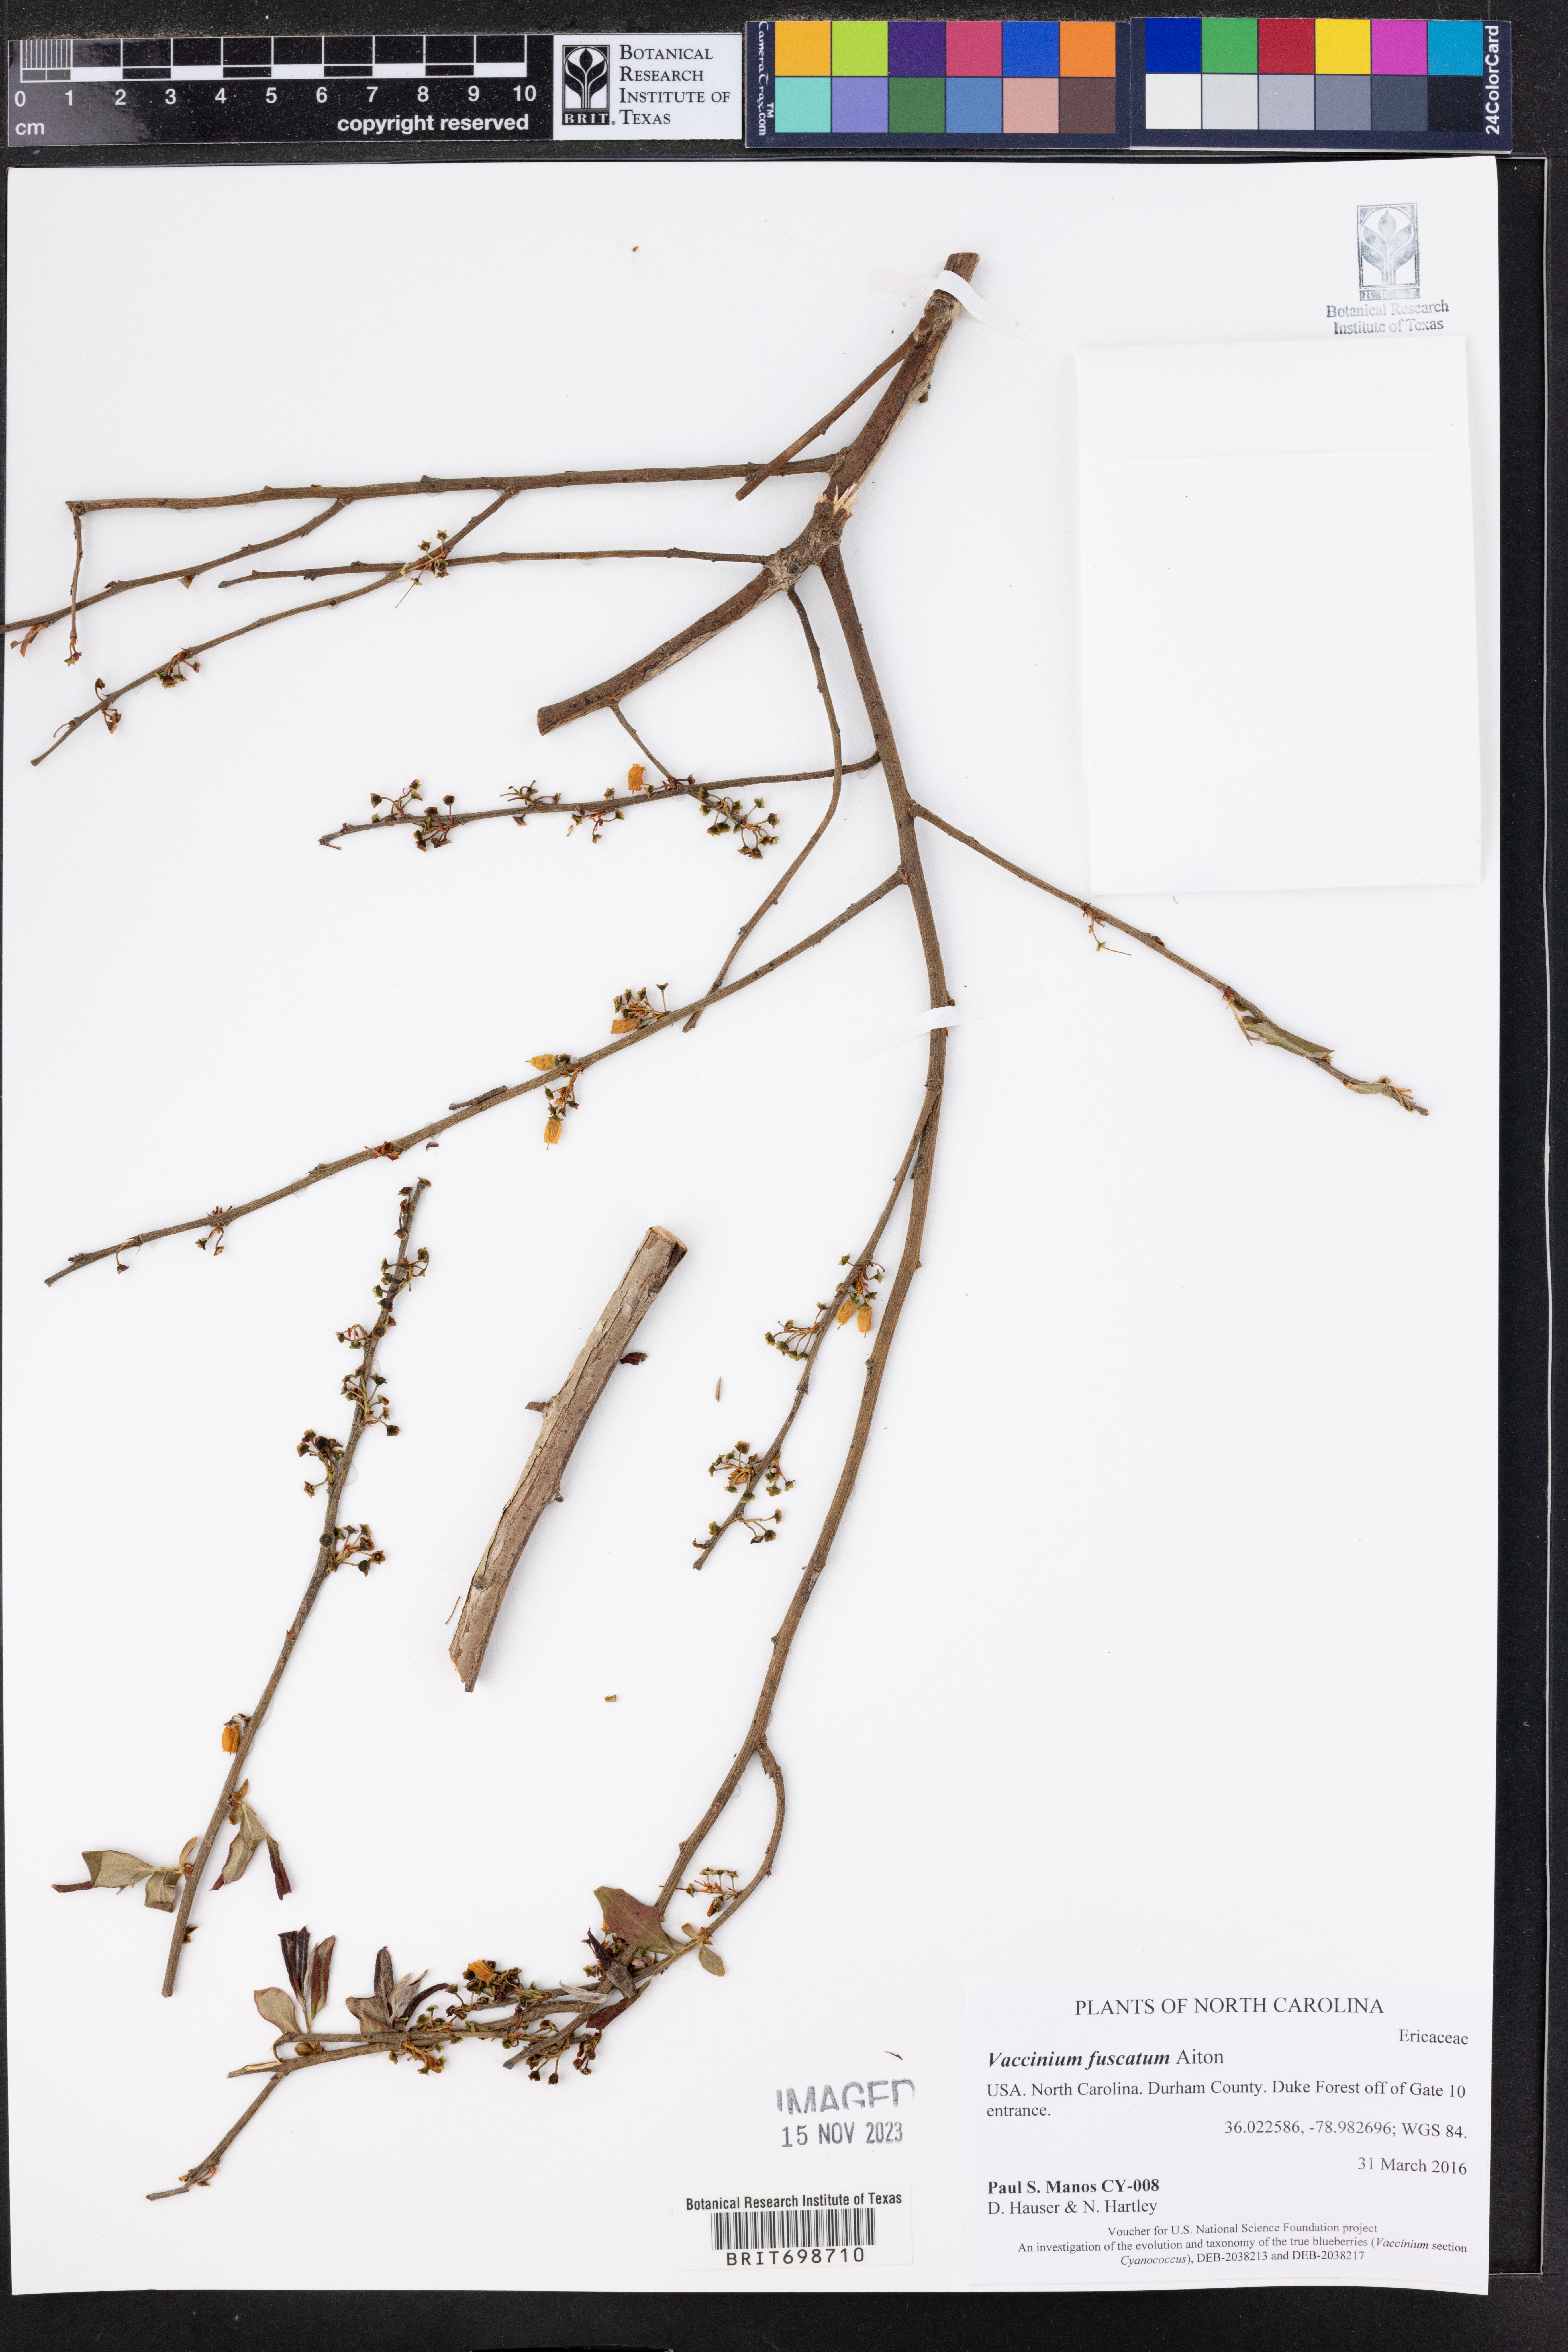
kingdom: Plantae
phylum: Tracheophyta
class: Magnoliopsida
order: Ericales
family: Ericaceae
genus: Vaccinium
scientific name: Vaccinium corymbosum
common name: Blueberry
